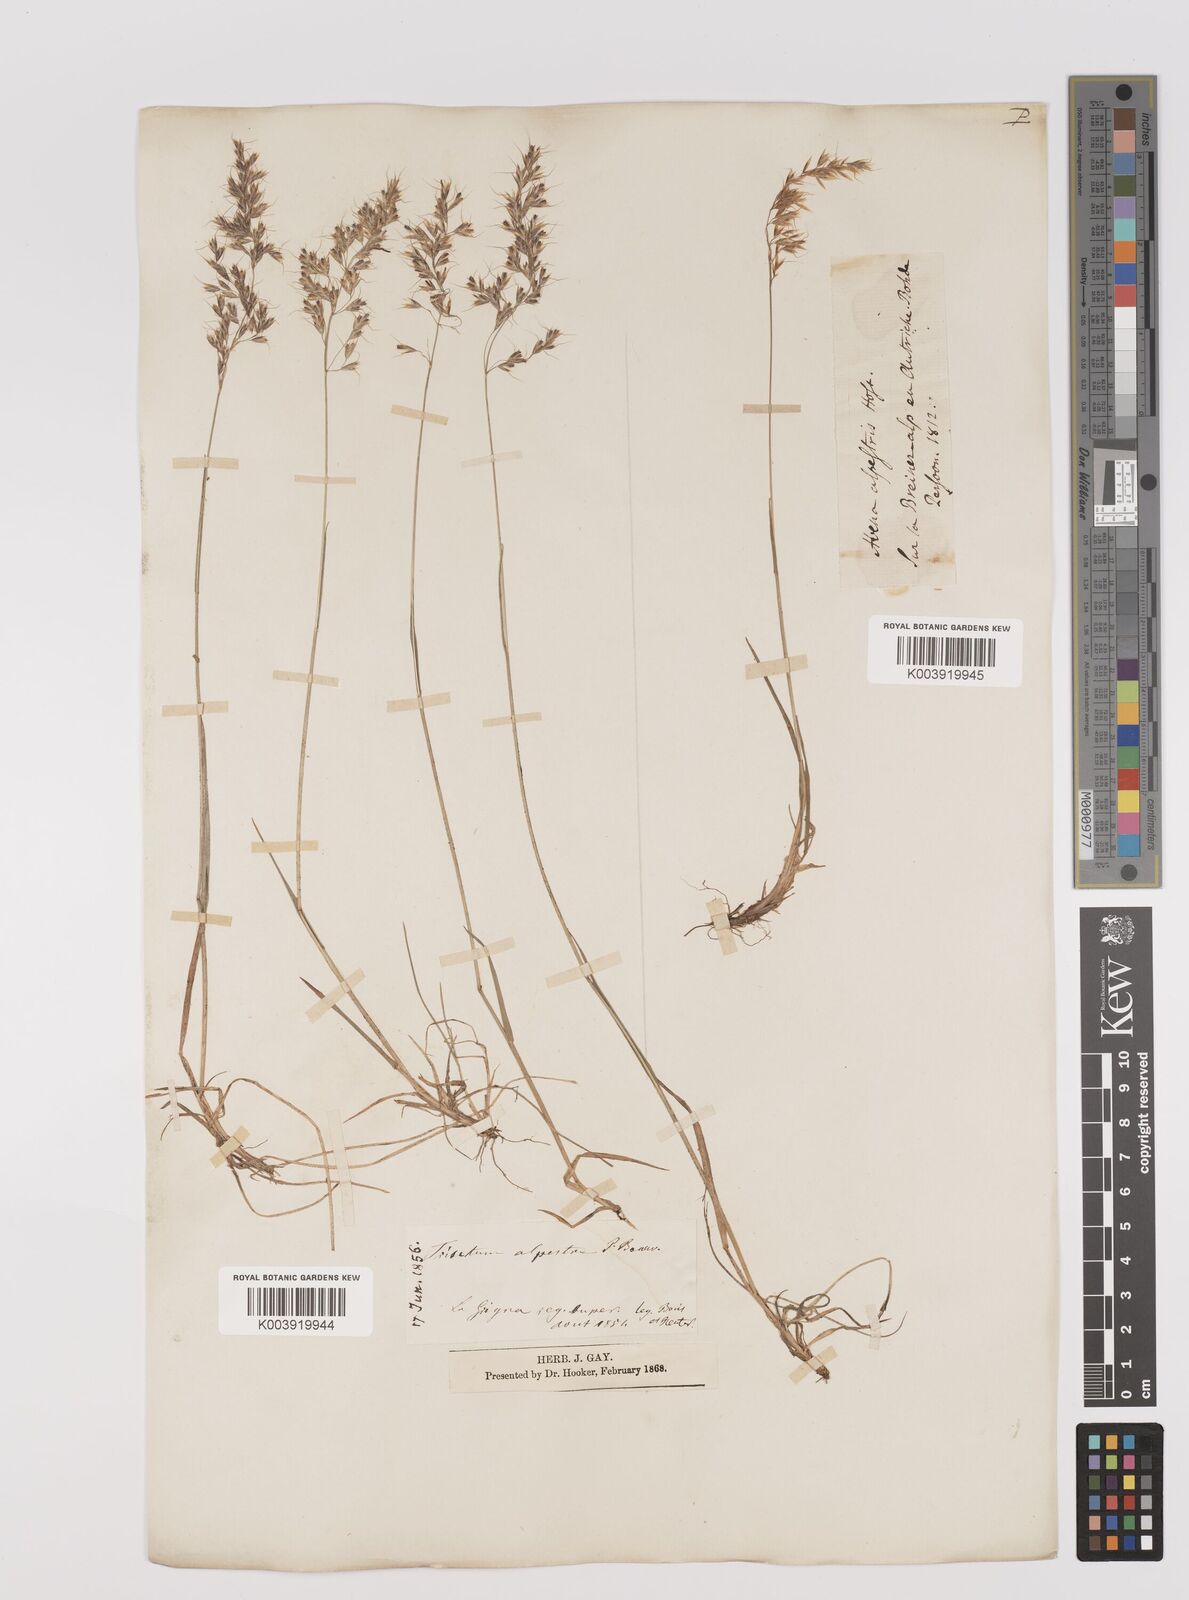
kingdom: Plantae
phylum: Tracheophyta
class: Liliopsida
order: Poales
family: Poaceae
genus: Trisetum
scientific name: Trisetum alpestre
